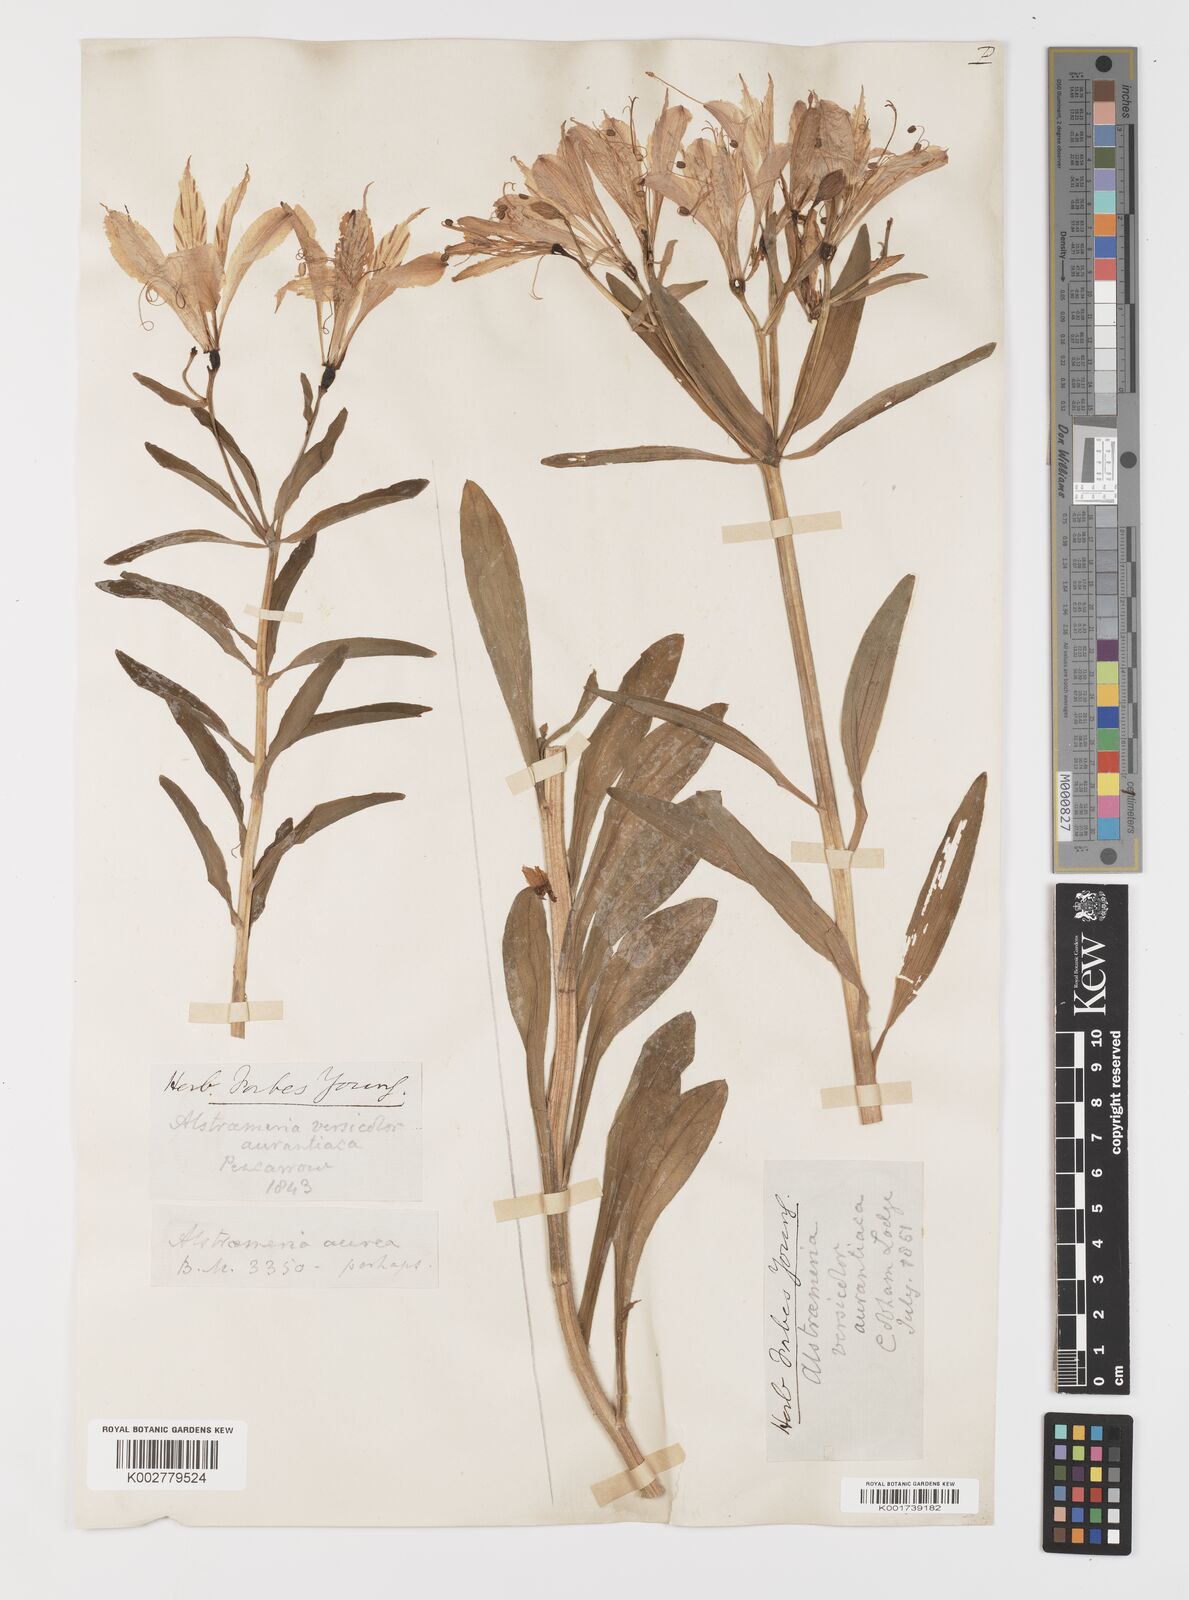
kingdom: Plantae
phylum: Tracheophyta
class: Liliopsida
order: Liliales
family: Alstroemeriaceae
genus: Alstroemeria
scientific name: Alstroemeria aurea
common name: Peruvian lily
